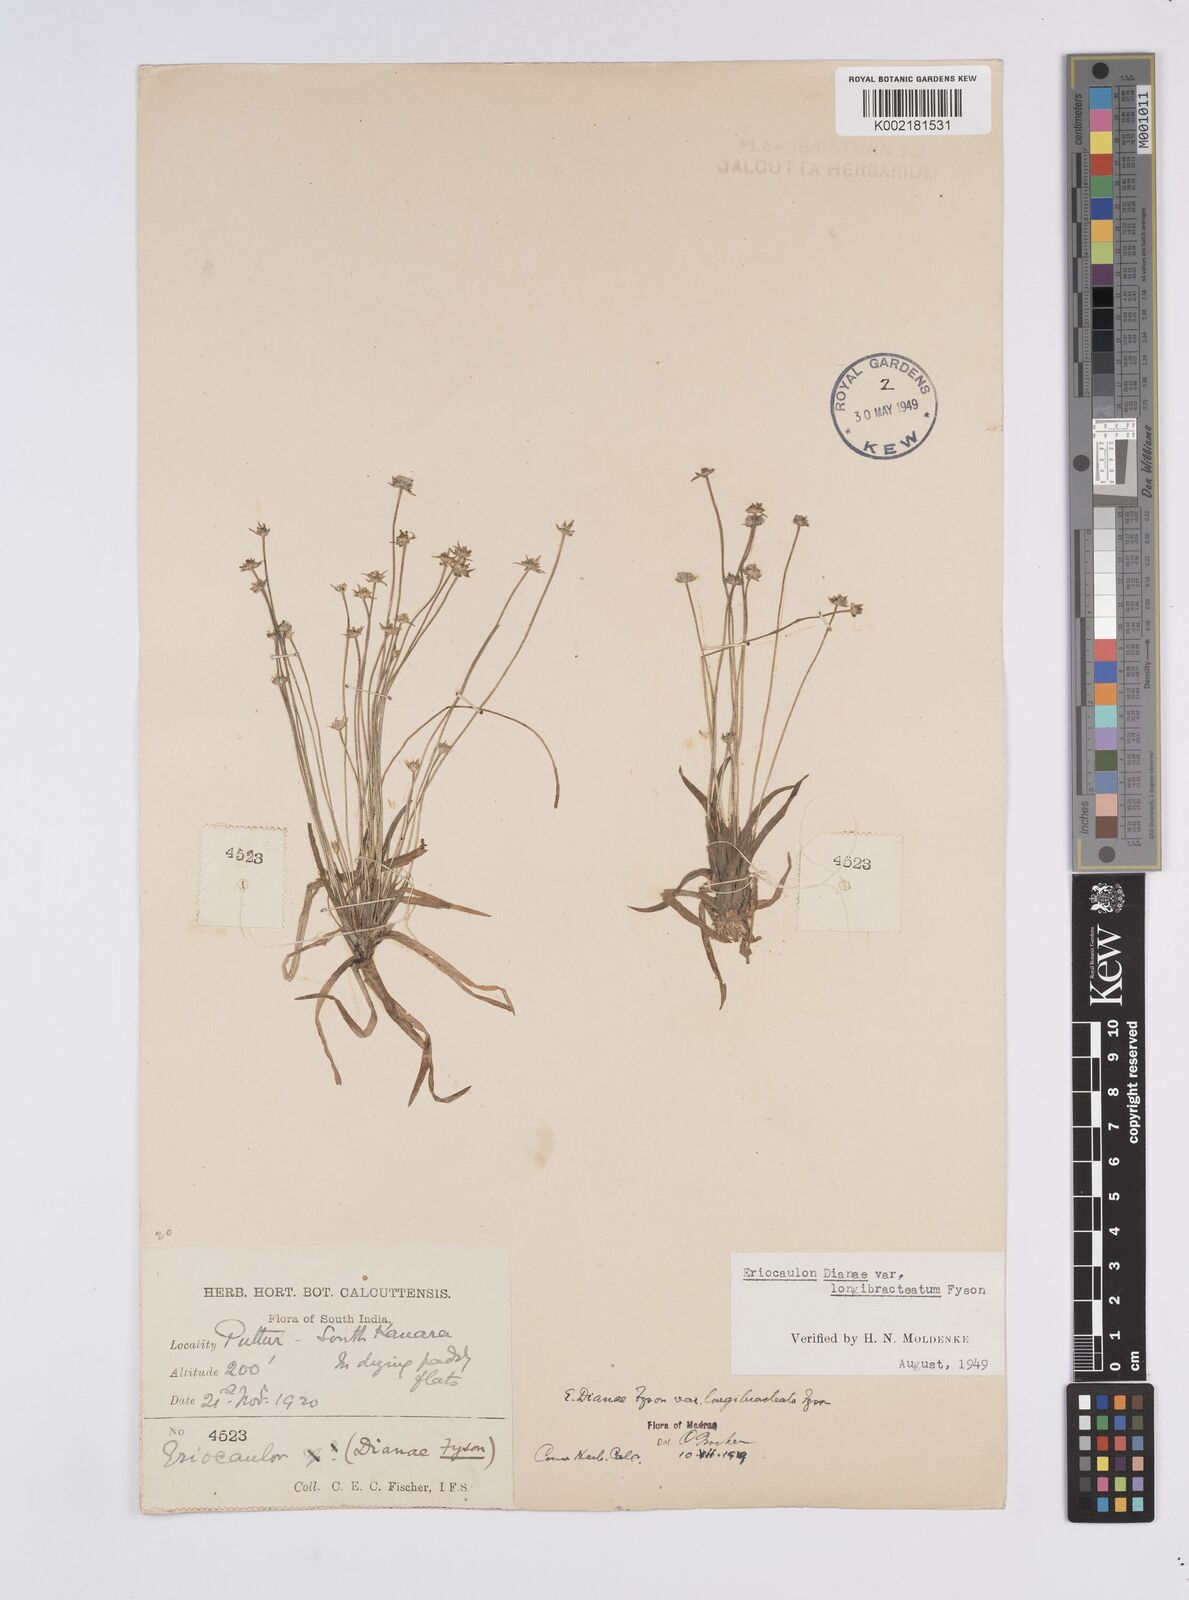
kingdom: Plantae
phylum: Tracheophyta
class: Liliopsida
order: Poales
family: Eriocaulaceae
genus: Eriocaulon
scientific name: Eriocaulon heterolepis
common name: Buttonhead pipewort
